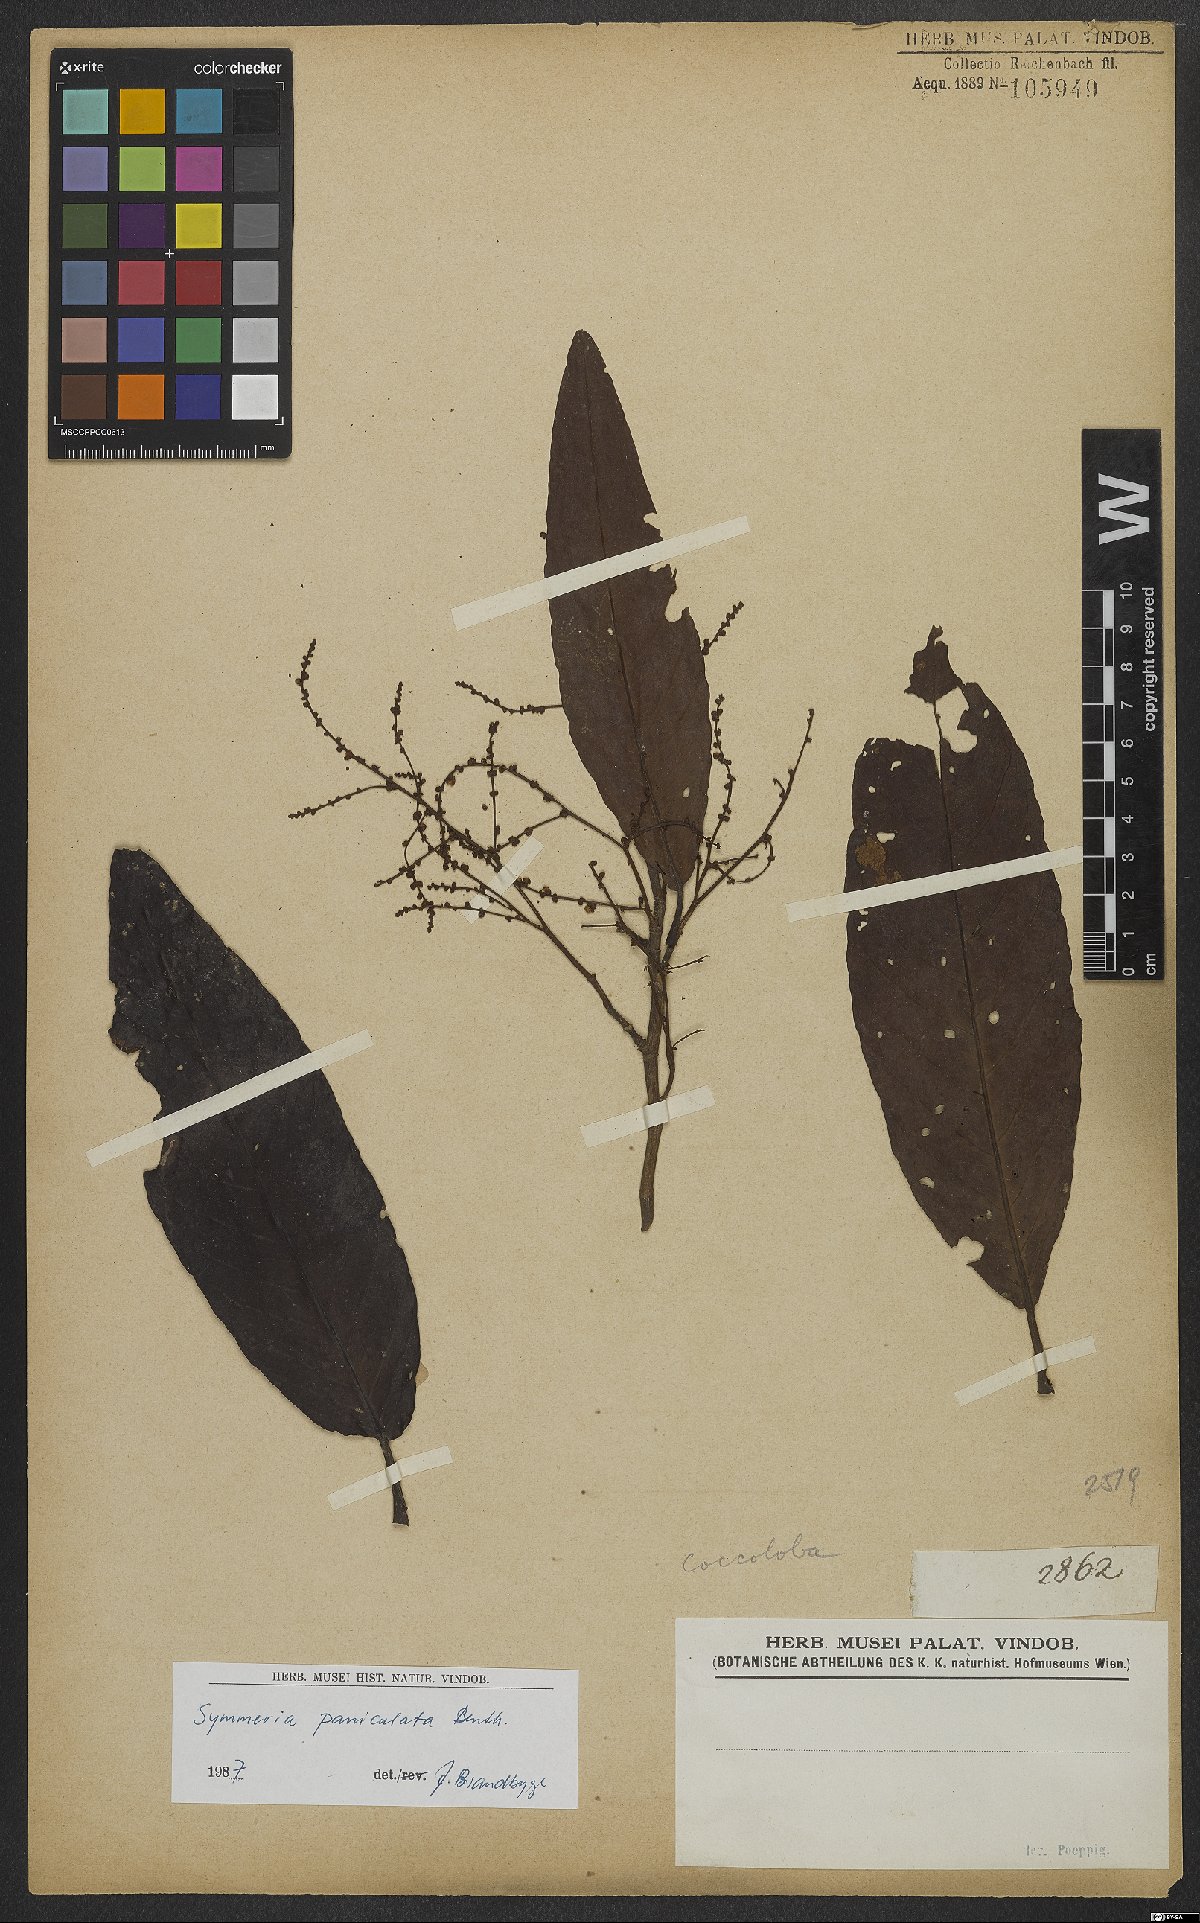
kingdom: Plantae
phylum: Tracheophyta
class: Magnoliopsida
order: Caryophyllales
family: Polygonaceae
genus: Symmeria
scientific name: Symmeria paniculata
